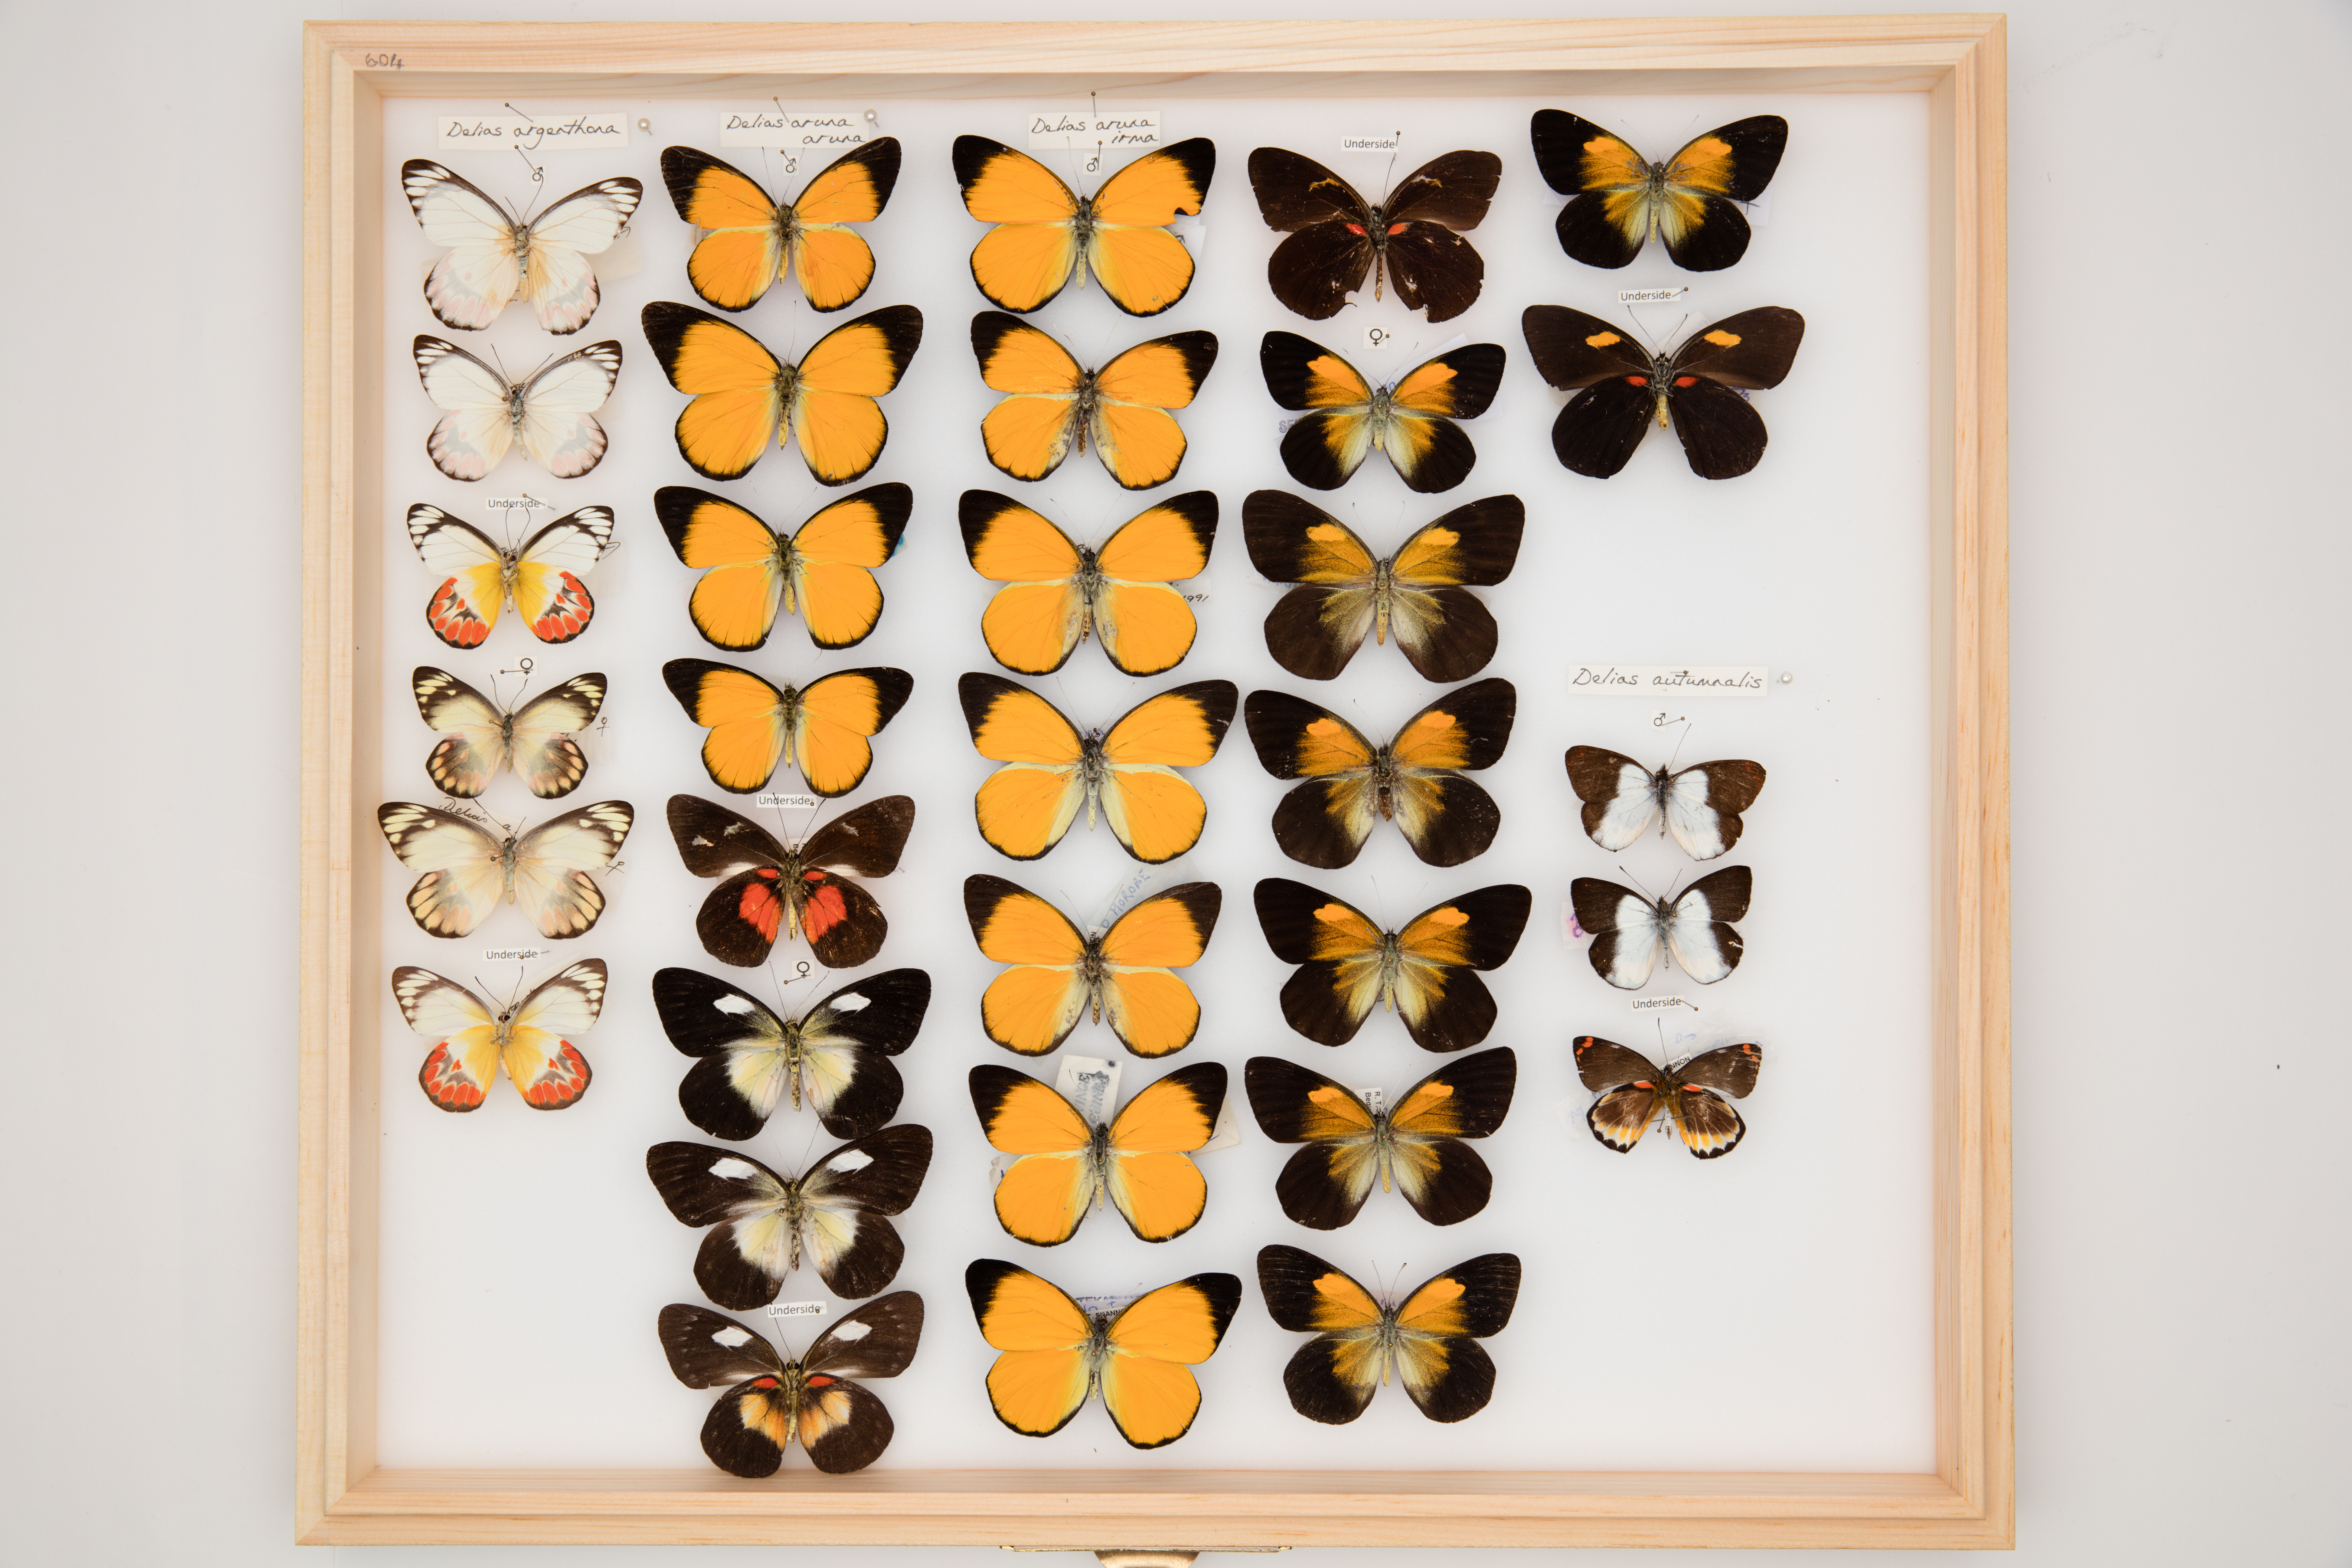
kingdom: Animalia
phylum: Arthropoda
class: Insecta
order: Lepidoptera
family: Pieridae
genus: Delias
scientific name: Delias aruna
